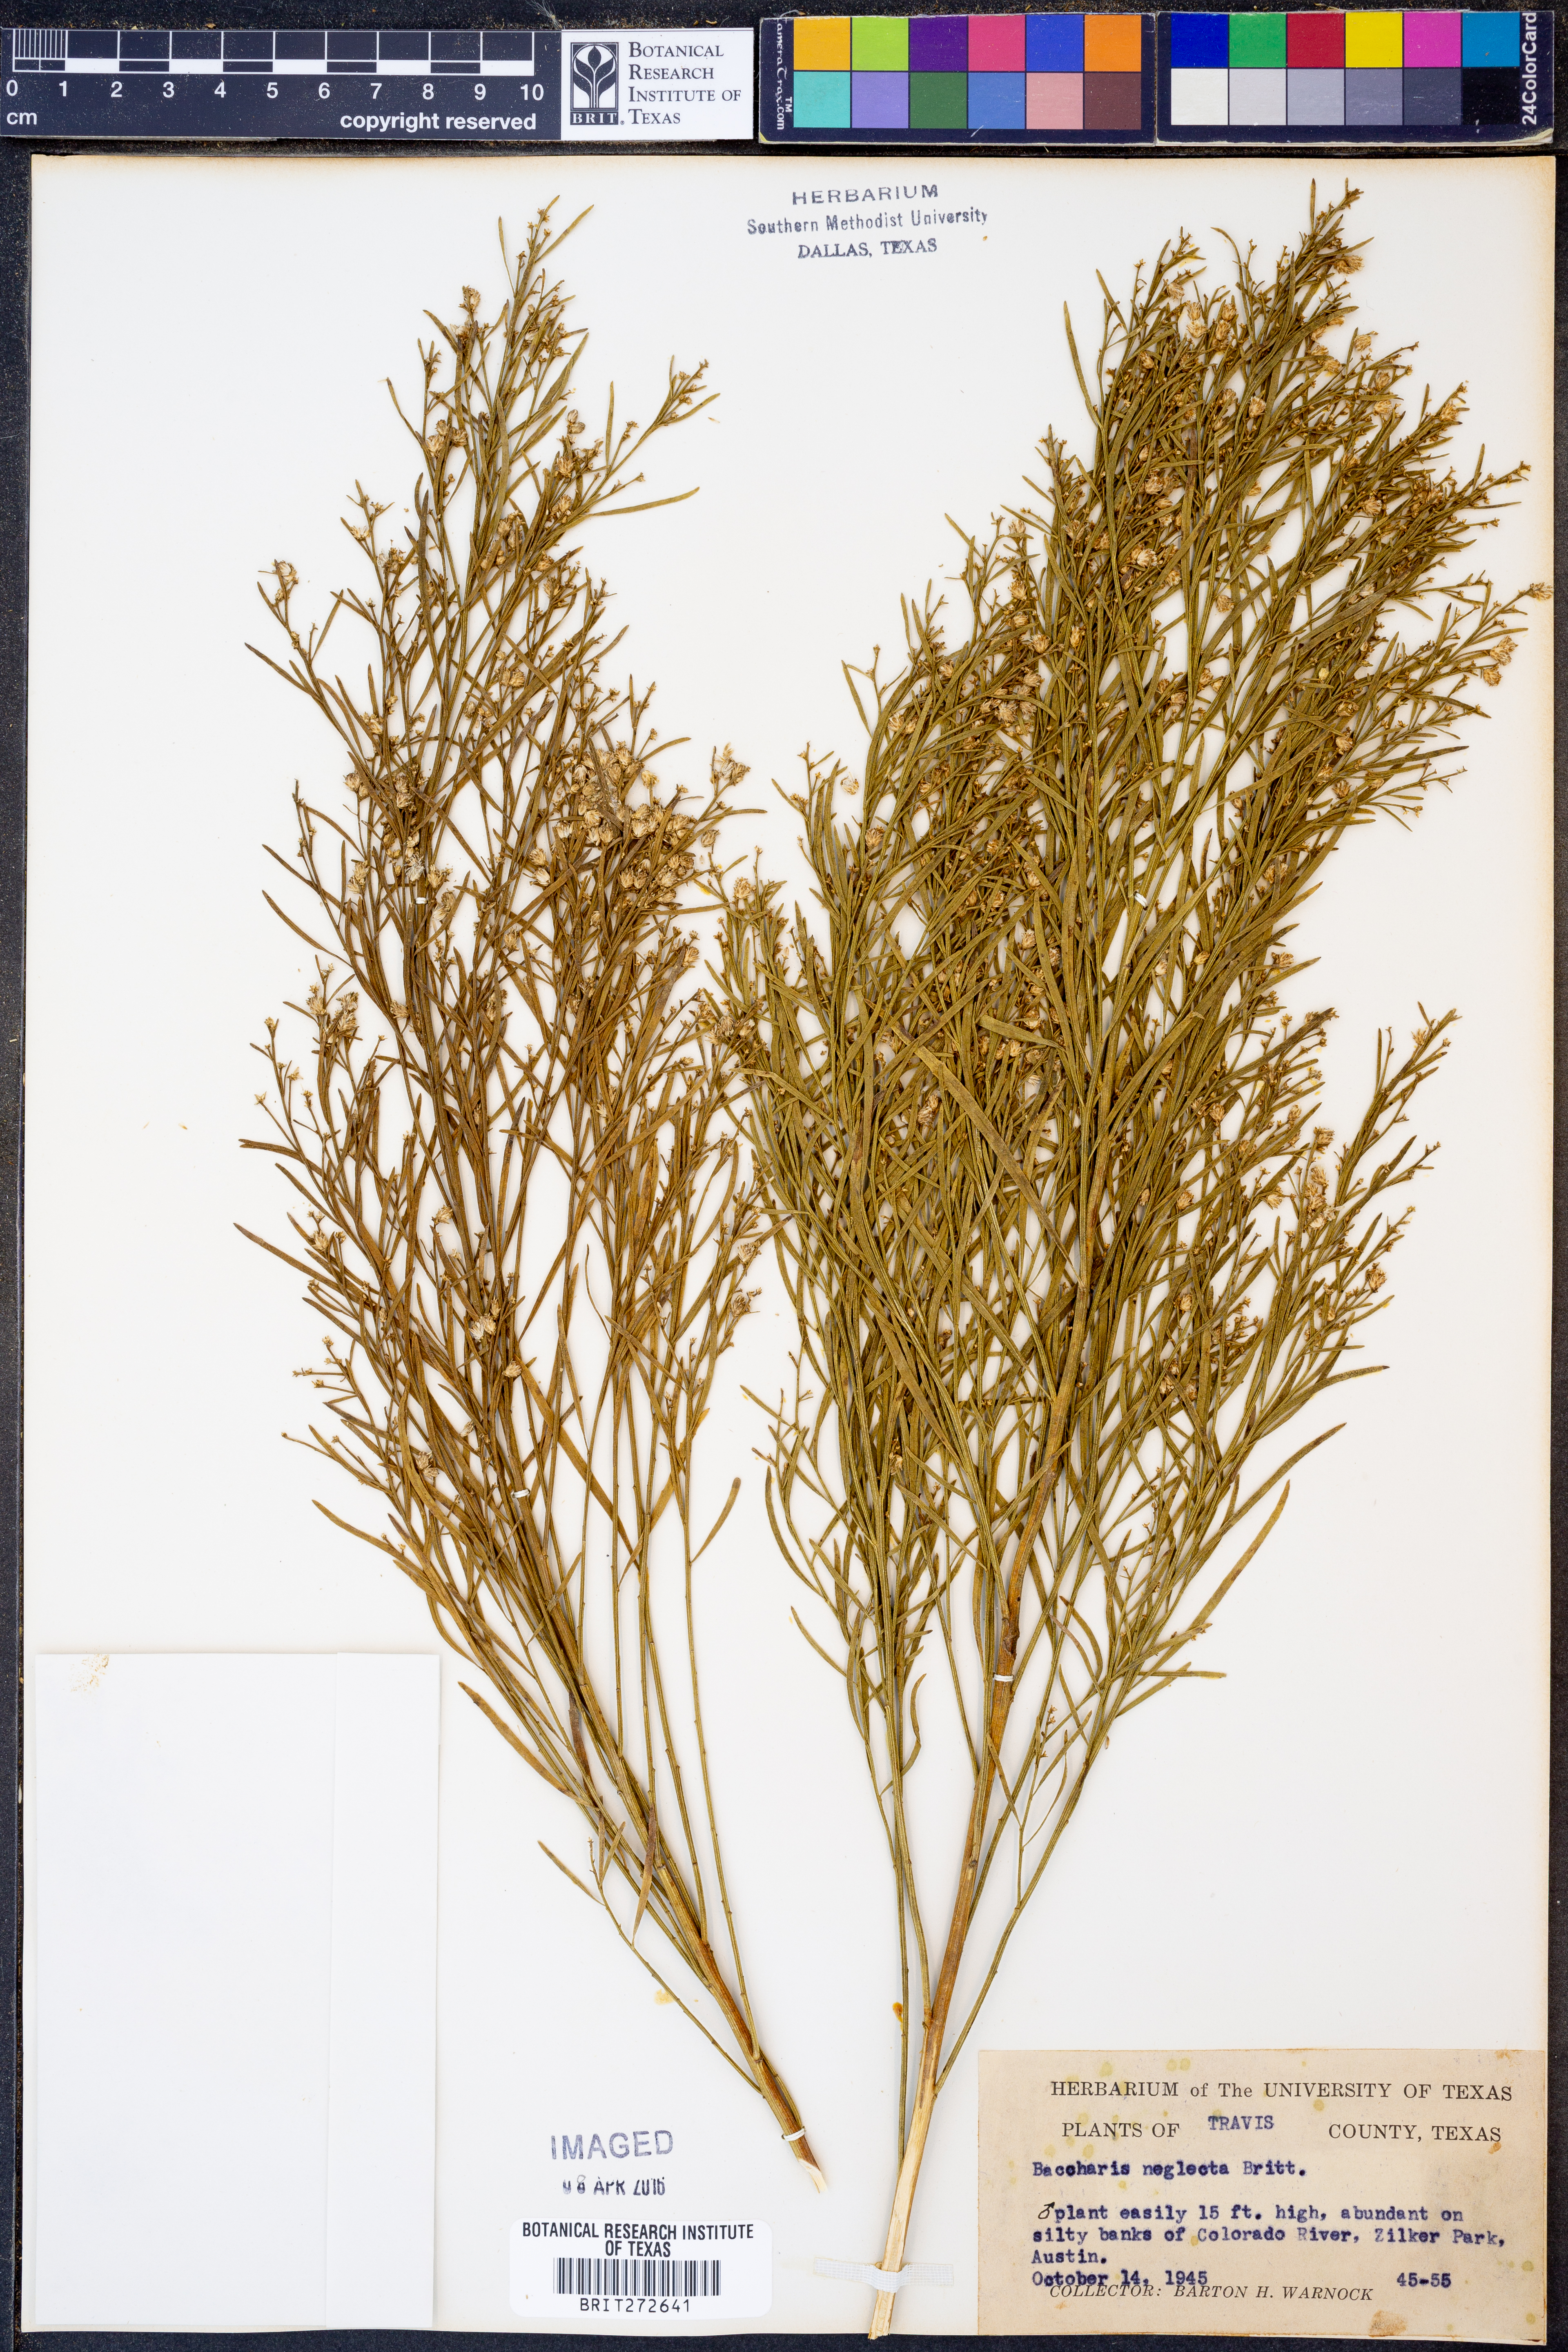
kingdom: Plantae
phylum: Tracheophyta
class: Magnoliopsida
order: Asterales
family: Asteraceae
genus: Baccharis
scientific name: Baccharis neglecta
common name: Roosevelt-weed
